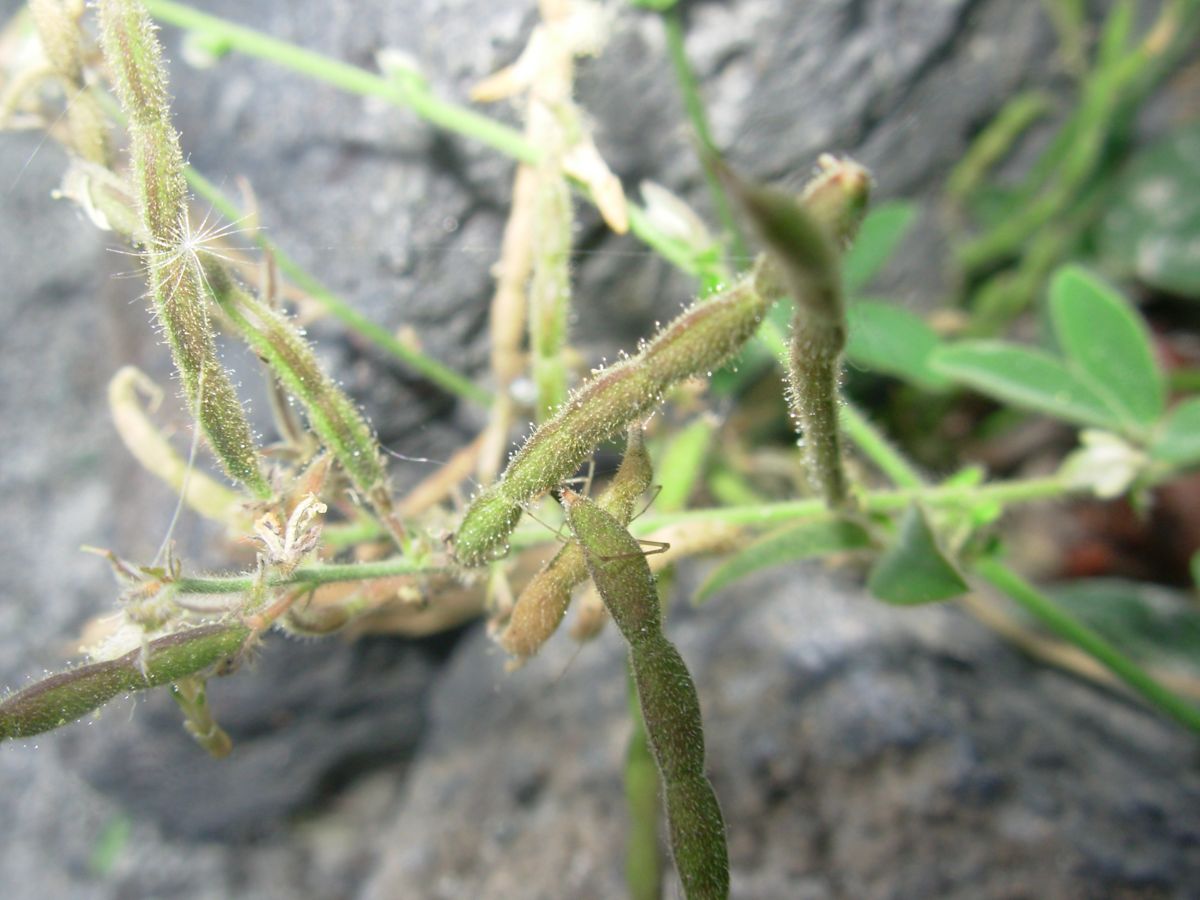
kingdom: Plantae
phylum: Tracheophyta
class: Magnoliopsida
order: Fabales
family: Fabaceae
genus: Desmodium
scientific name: Desmodium scorpiurus
